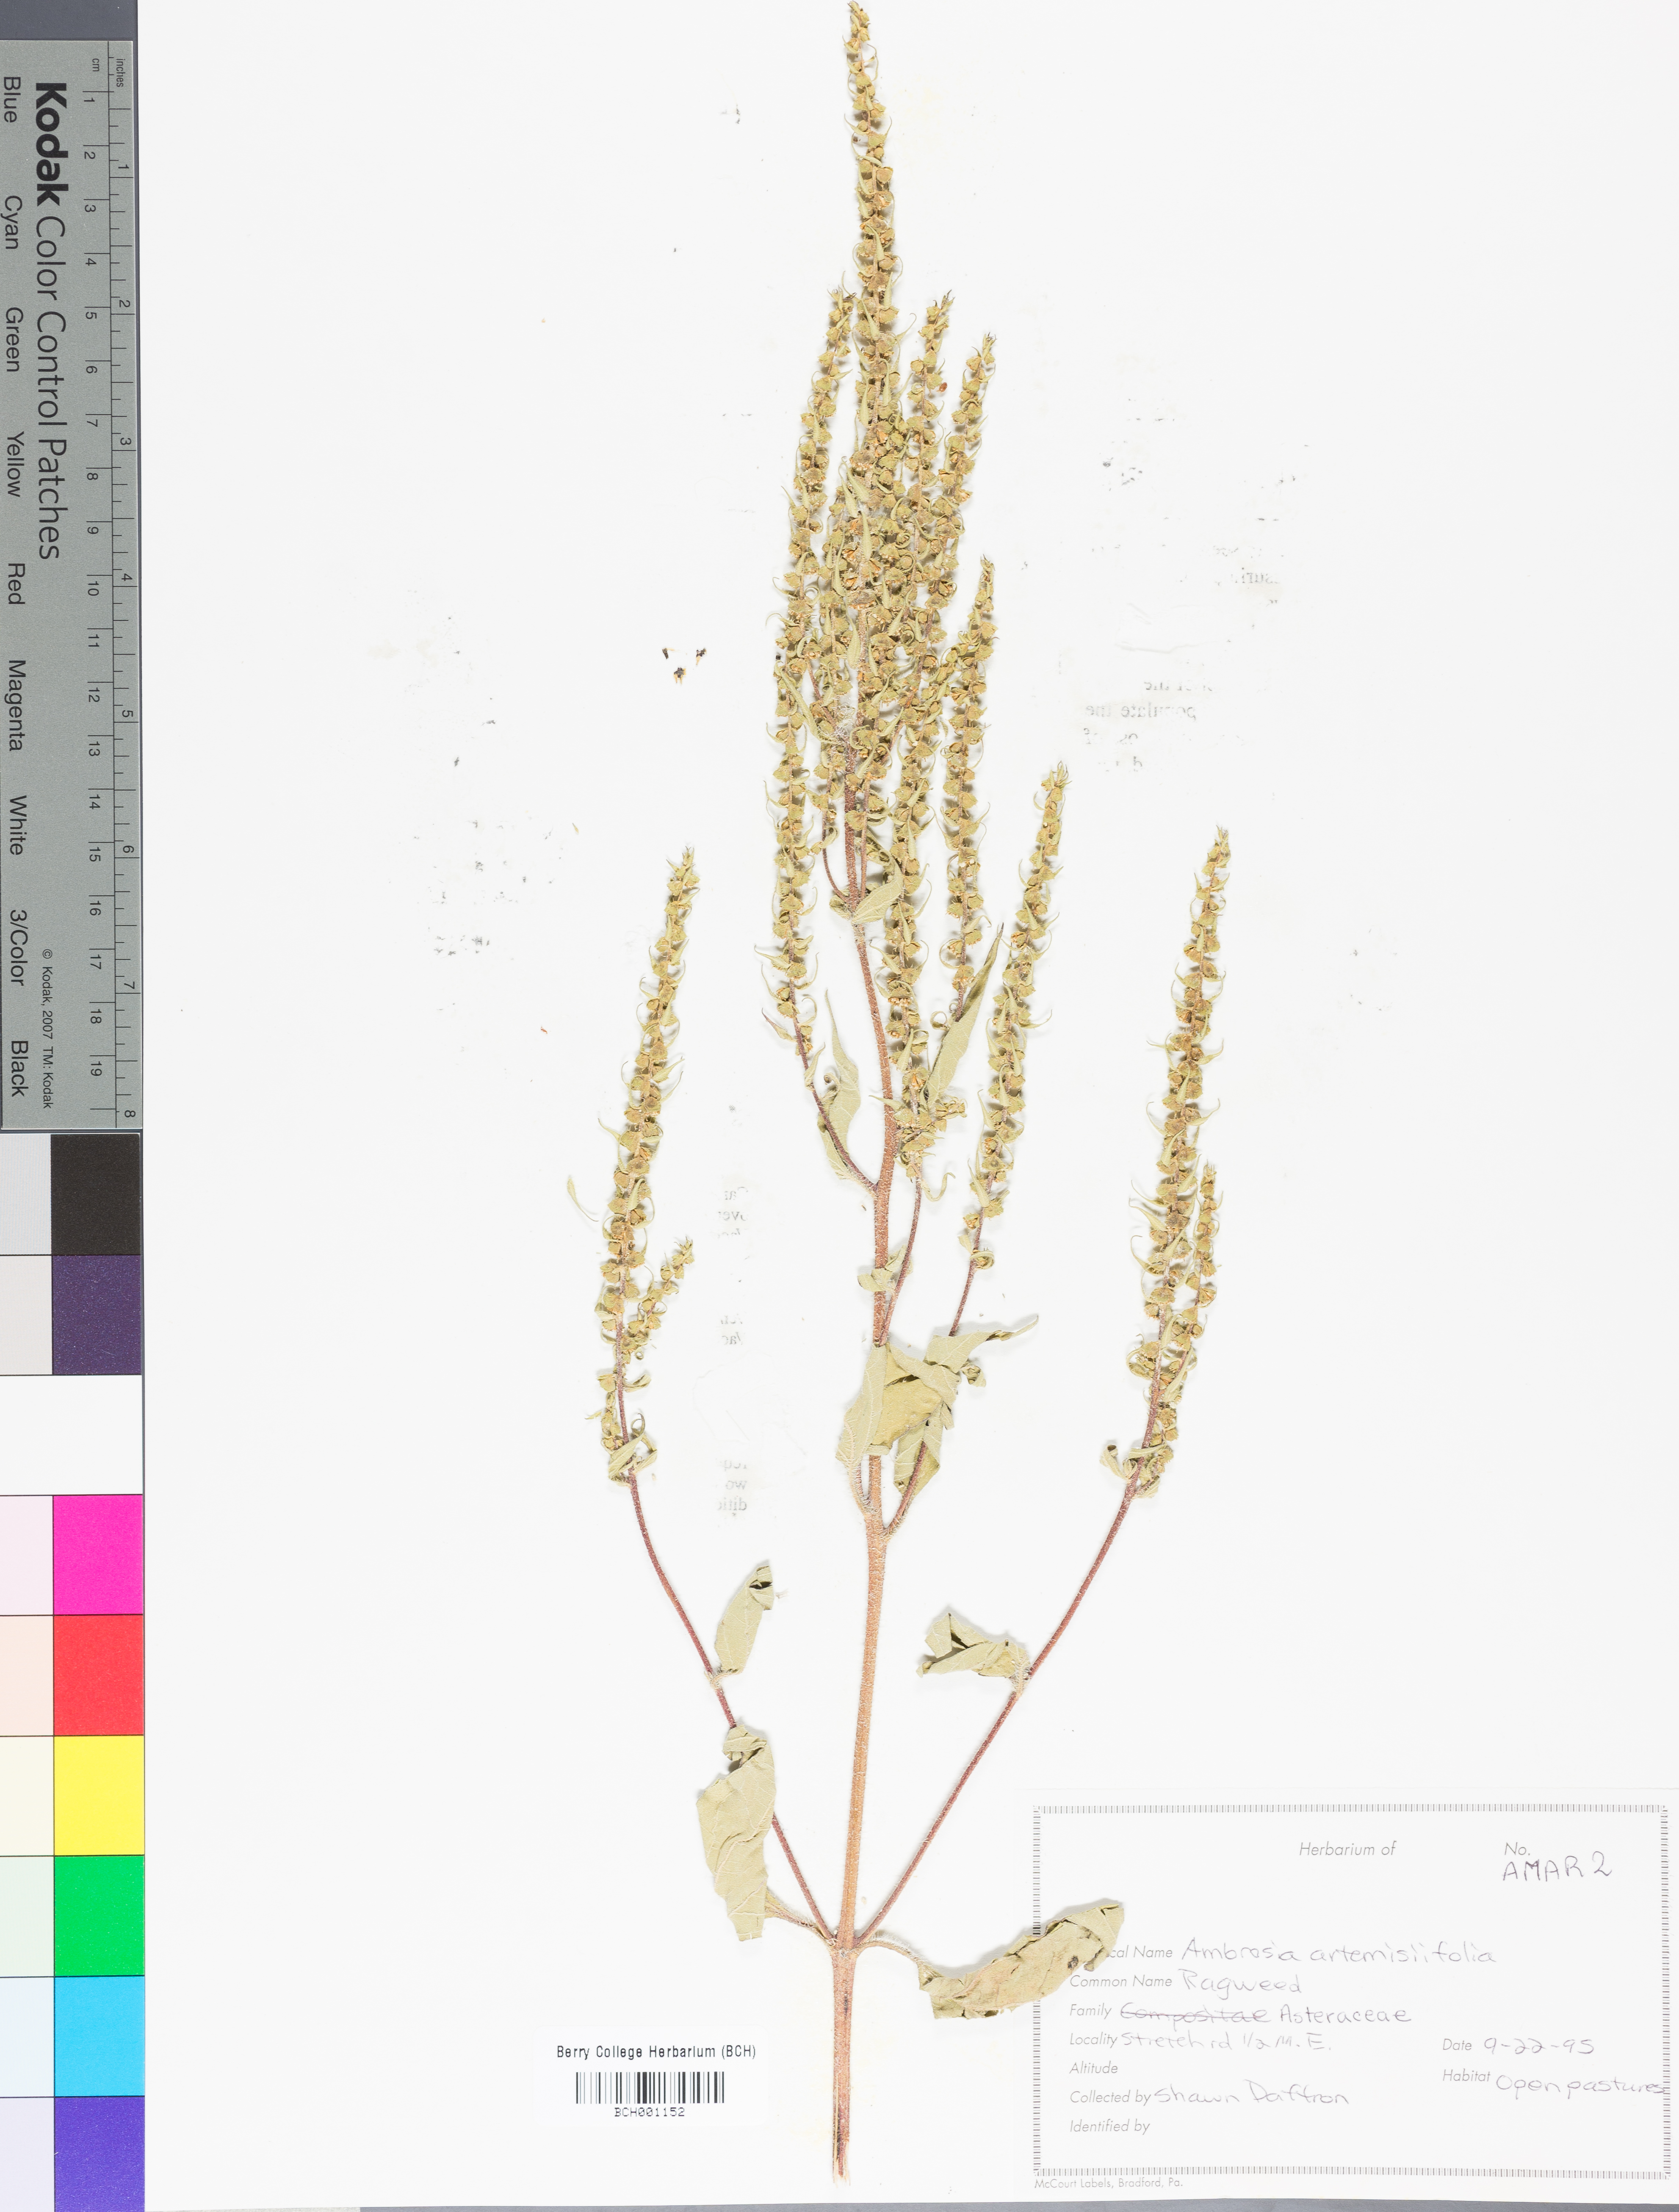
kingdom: Plantae
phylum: Tracheophyta
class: Magnoliopsida
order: Asterales
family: Asteraceae
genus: Ambrosia
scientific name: Ambrosia artemisiifolia
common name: Annual ragweed
